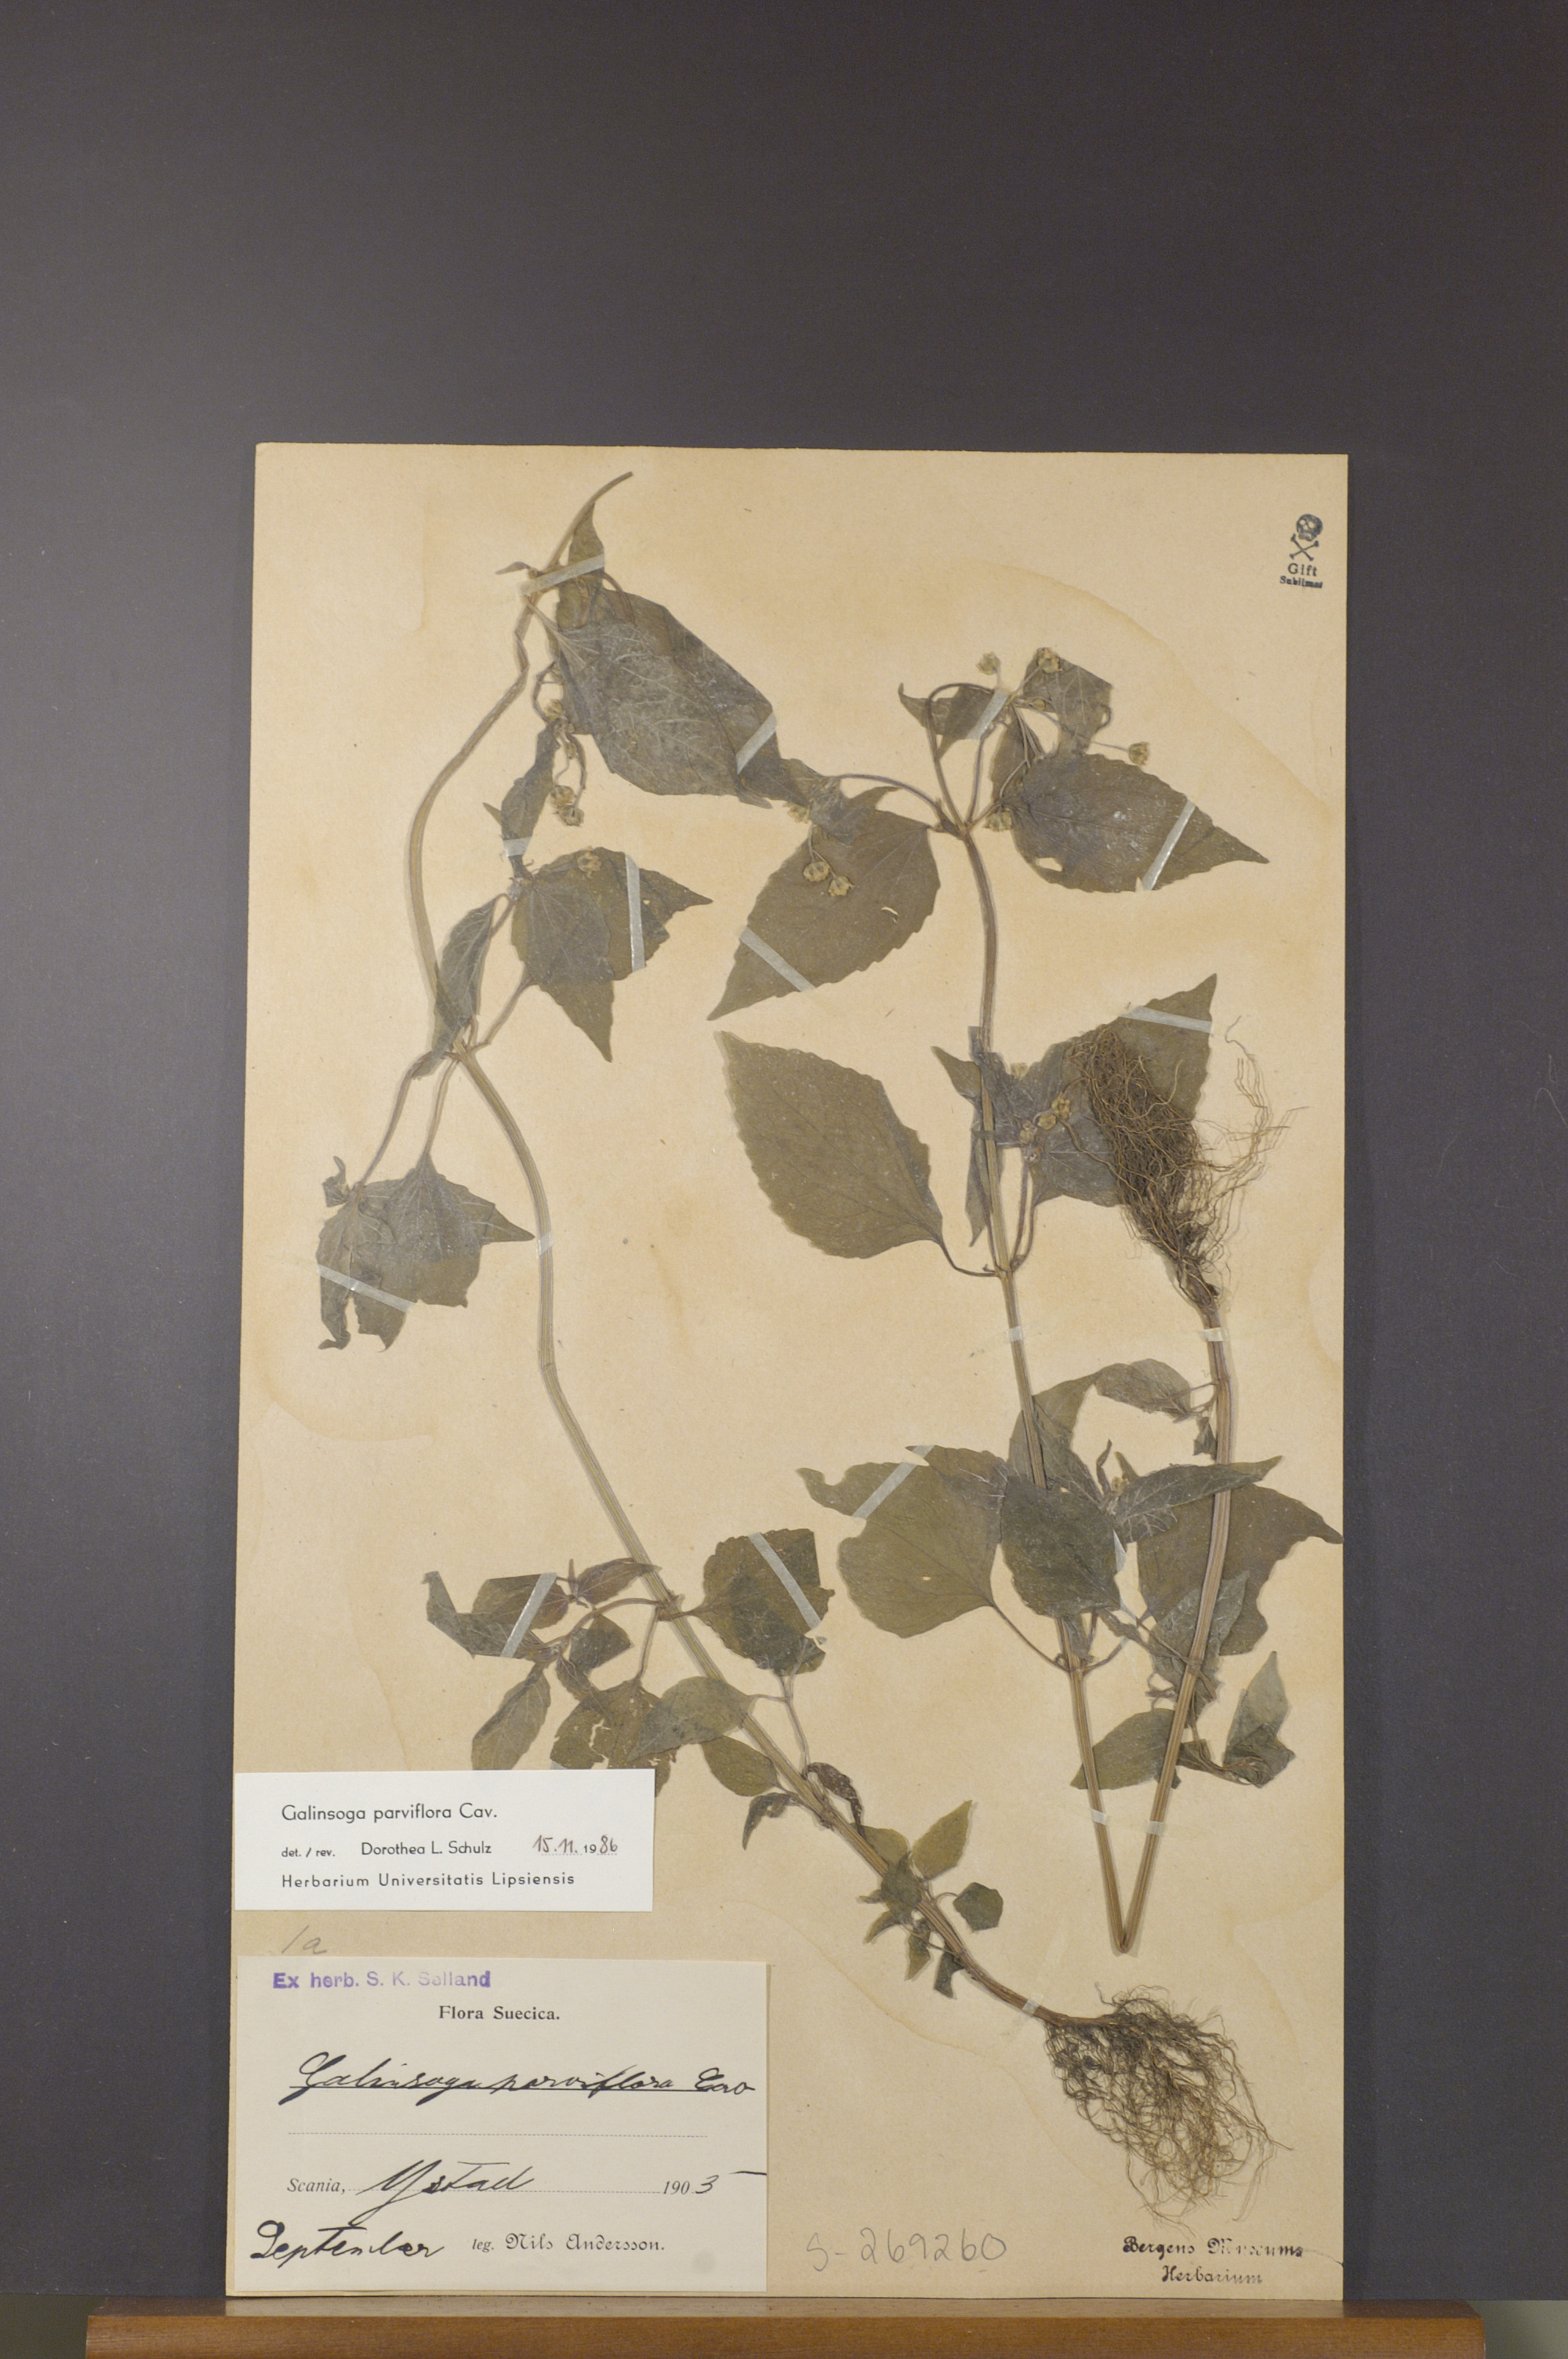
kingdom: Plantae
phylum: Tracheophyta
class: Magnoliopsida
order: Asterales
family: Asteraceae
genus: Galinsoga
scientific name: Galinsoga parviflora
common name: Gallant soldier
